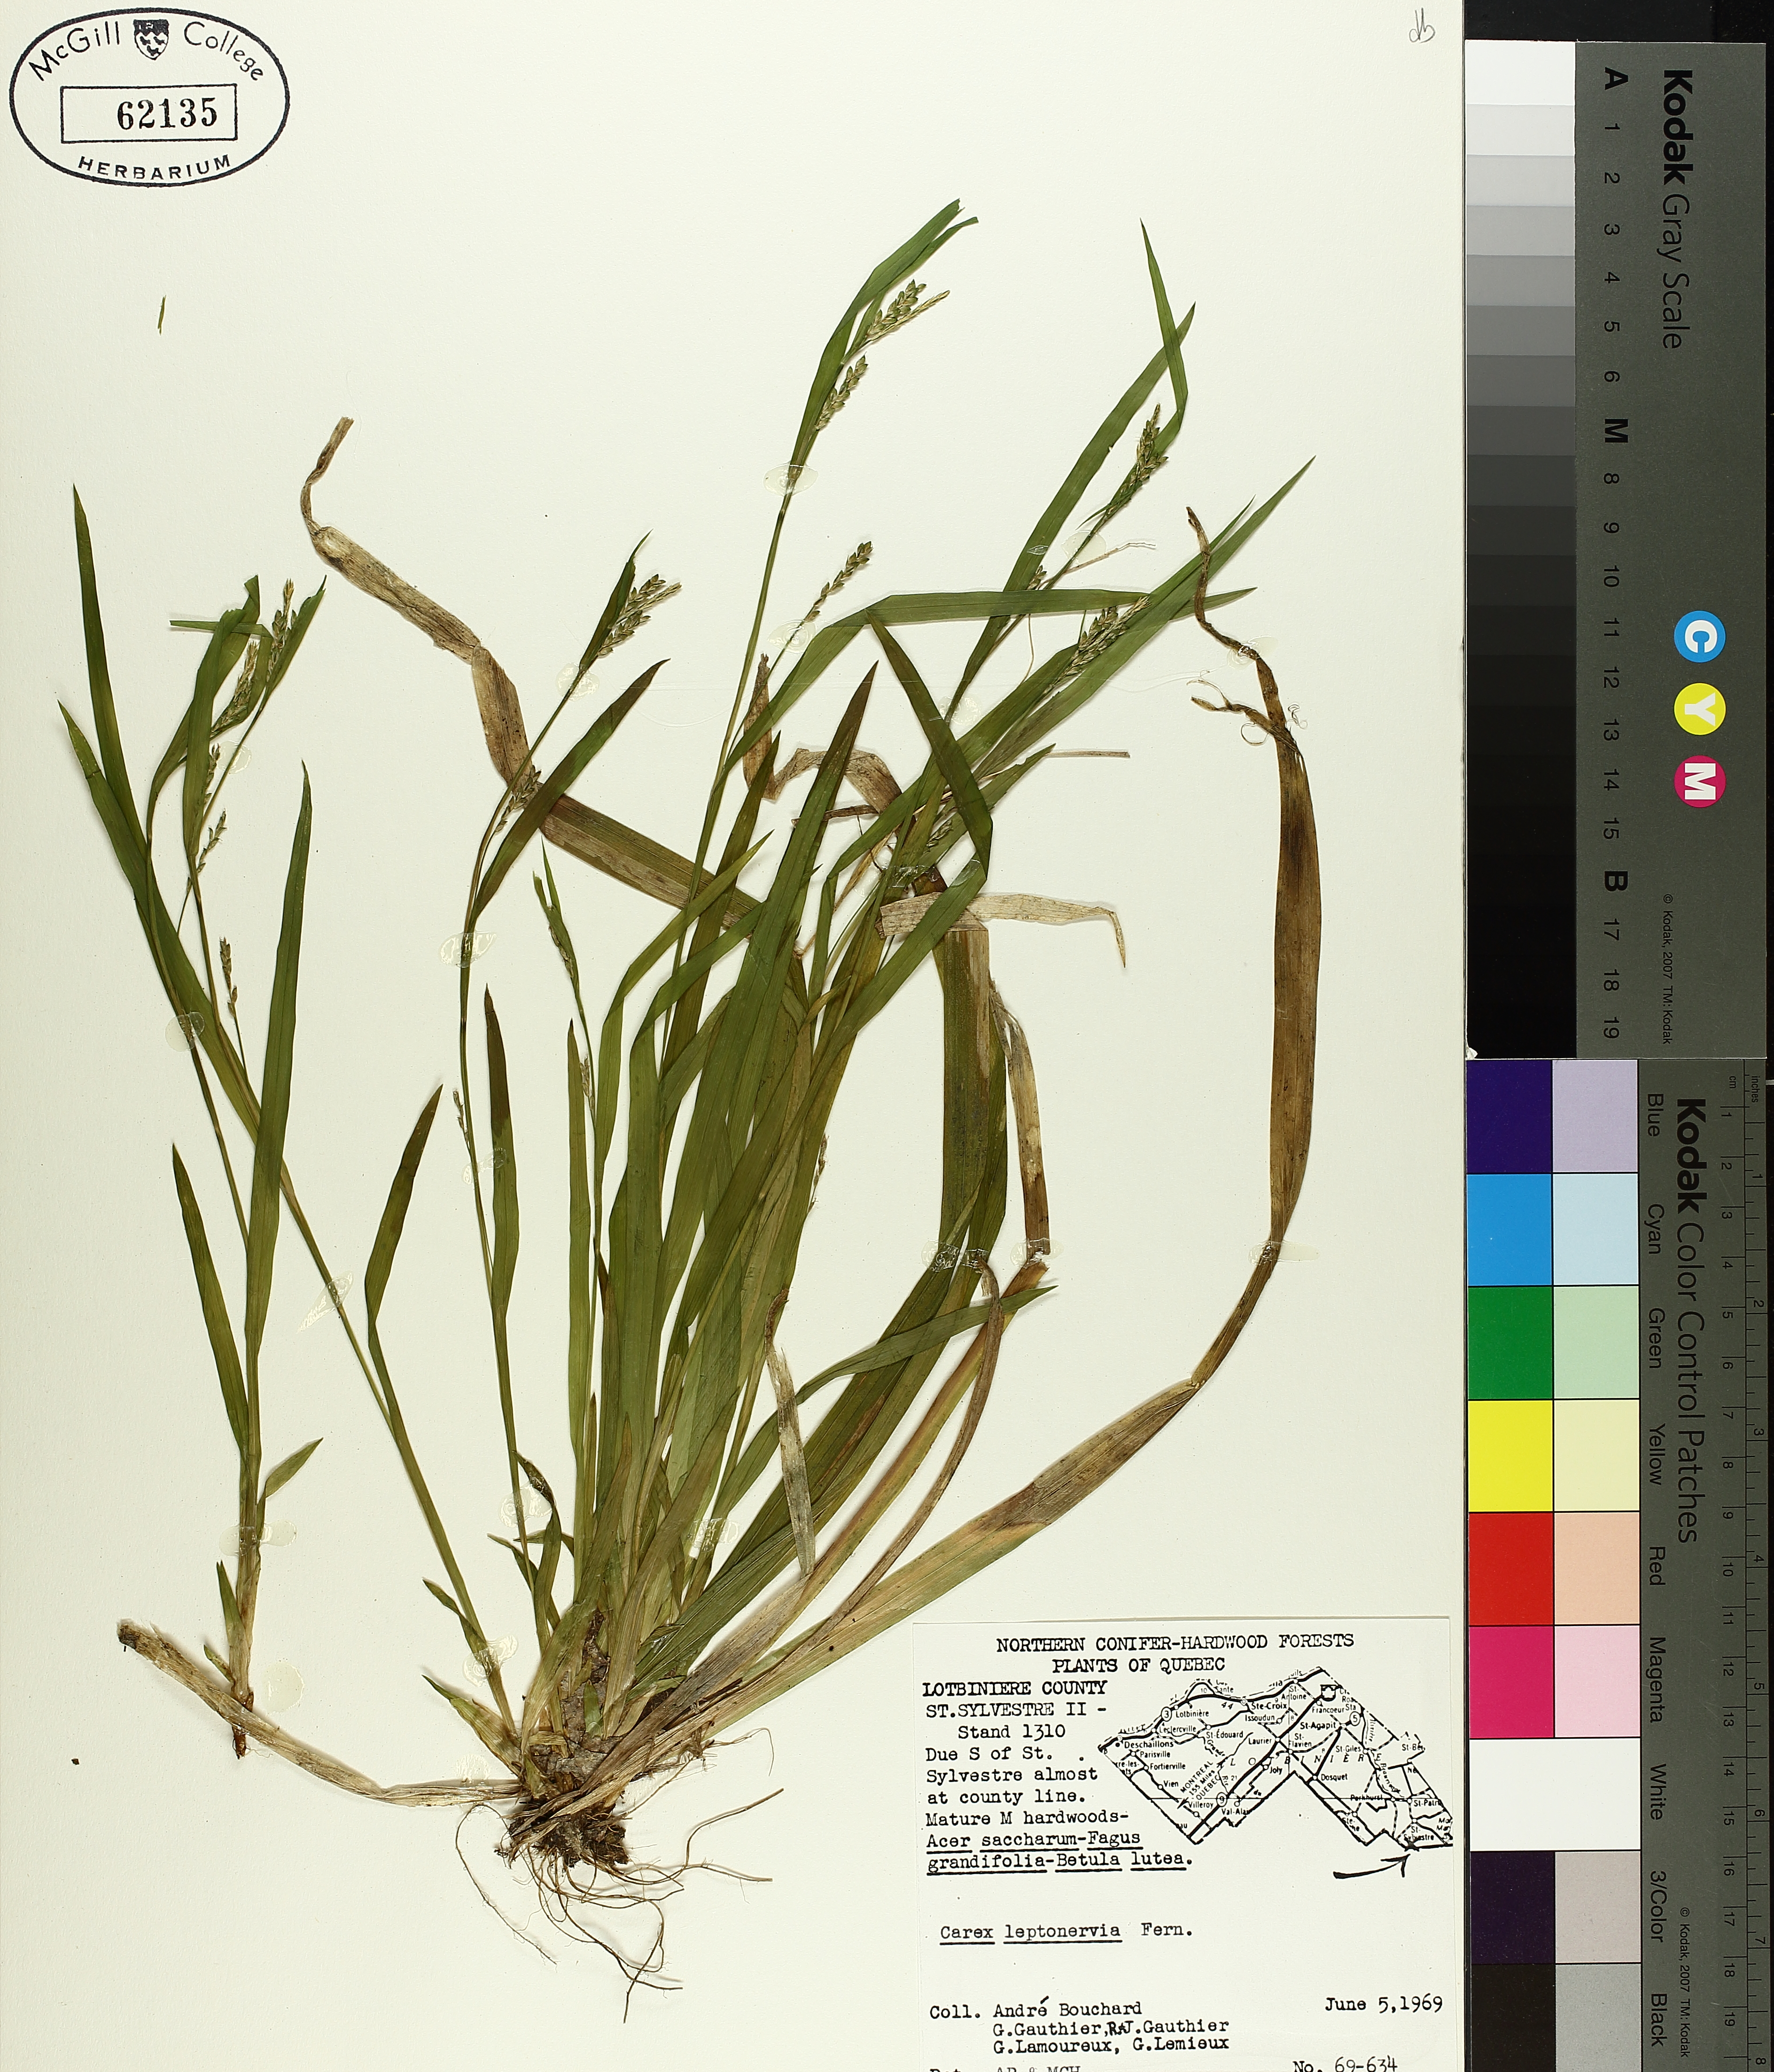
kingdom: Plantae
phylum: Tracheophyta
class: Liliopsida
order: Poales
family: Cyperaceae
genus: Carex
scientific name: Carex leptonervia
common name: Few-nerved wood sedge
